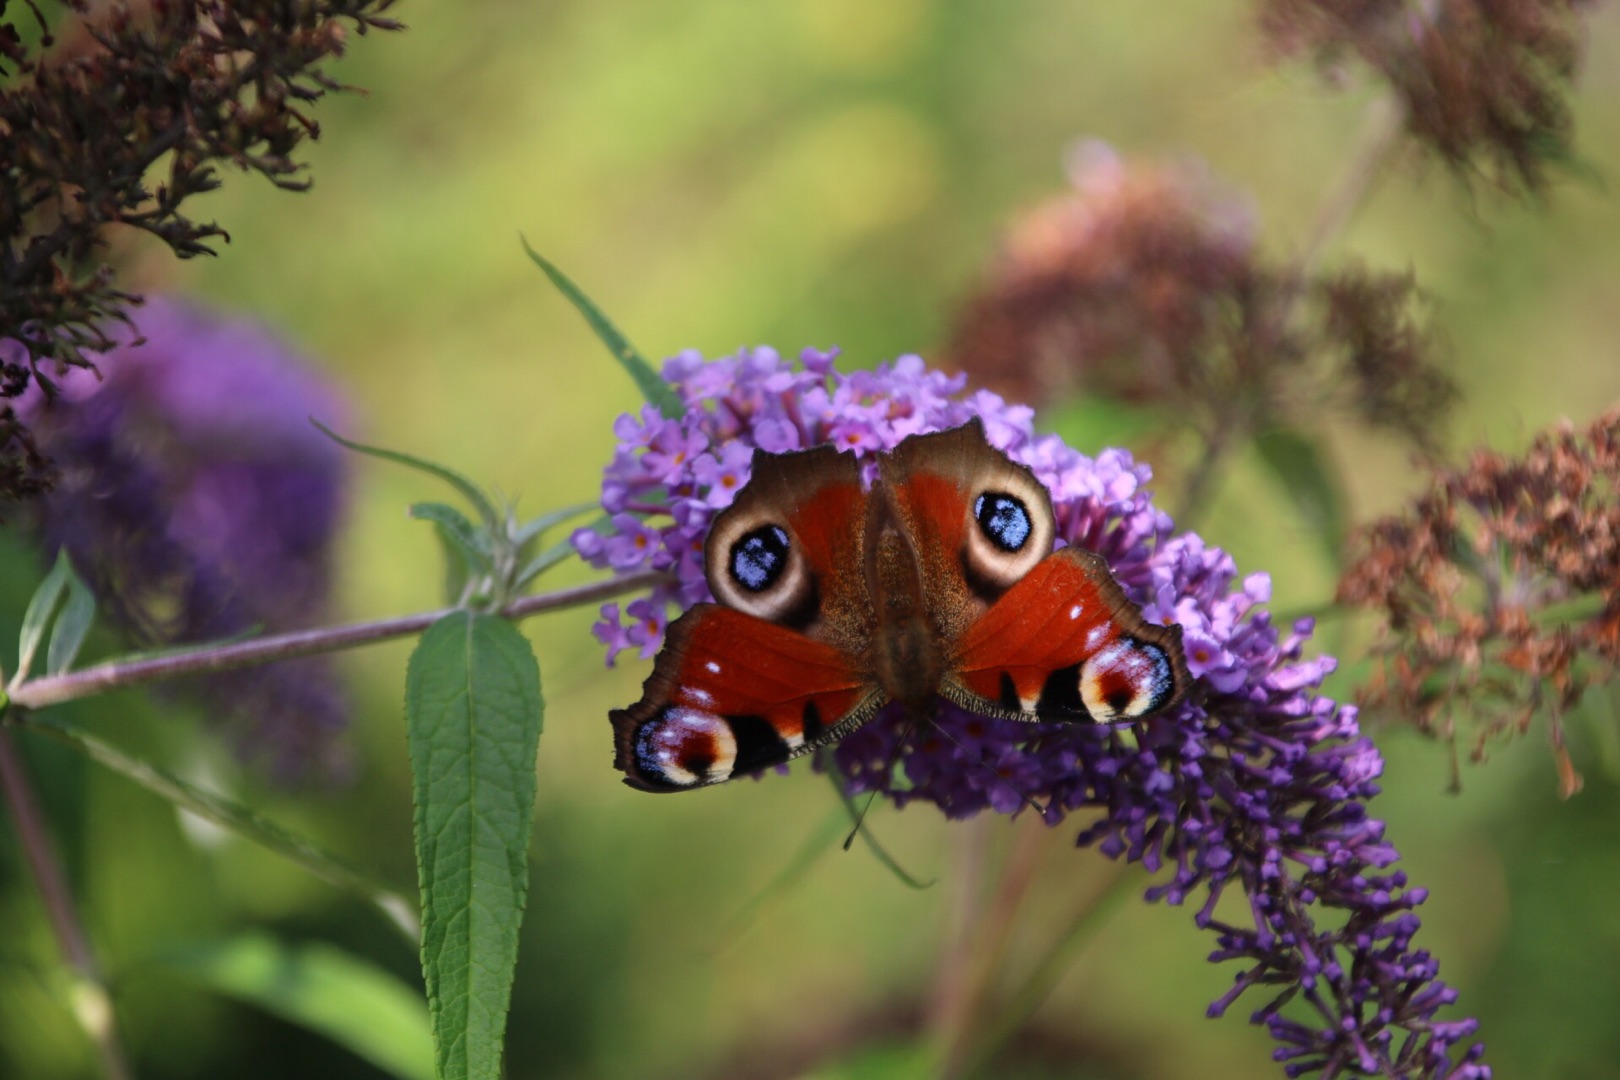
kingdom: Animalia
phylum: Arthropoda
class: Insecta
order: Lepidoptera
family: Nymphalidae
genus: Aglais
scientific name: Aglais io
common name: Dagpåfugleøje
